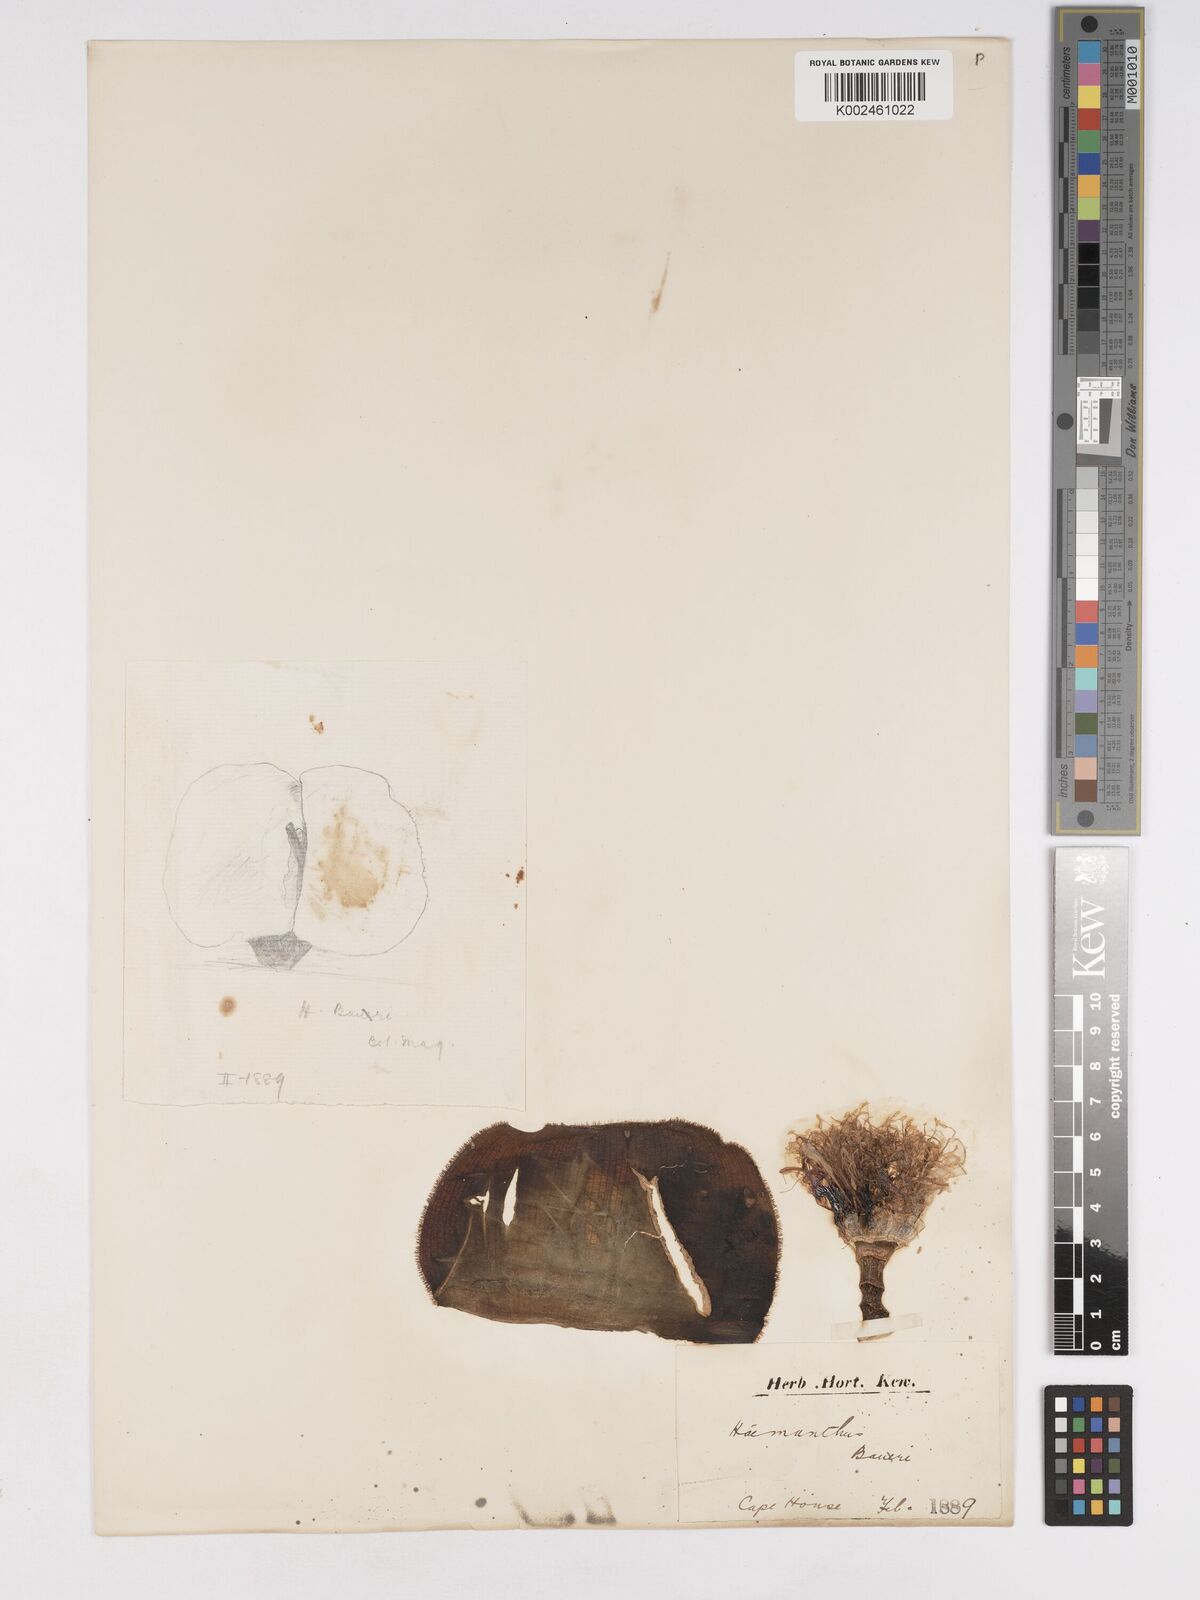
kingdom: Plantae
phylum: Tracheophyta
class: Liliopsida
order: Asparagales
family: Amaryllidaceae
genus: Haemanthus
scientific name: Haemanthus deformis
